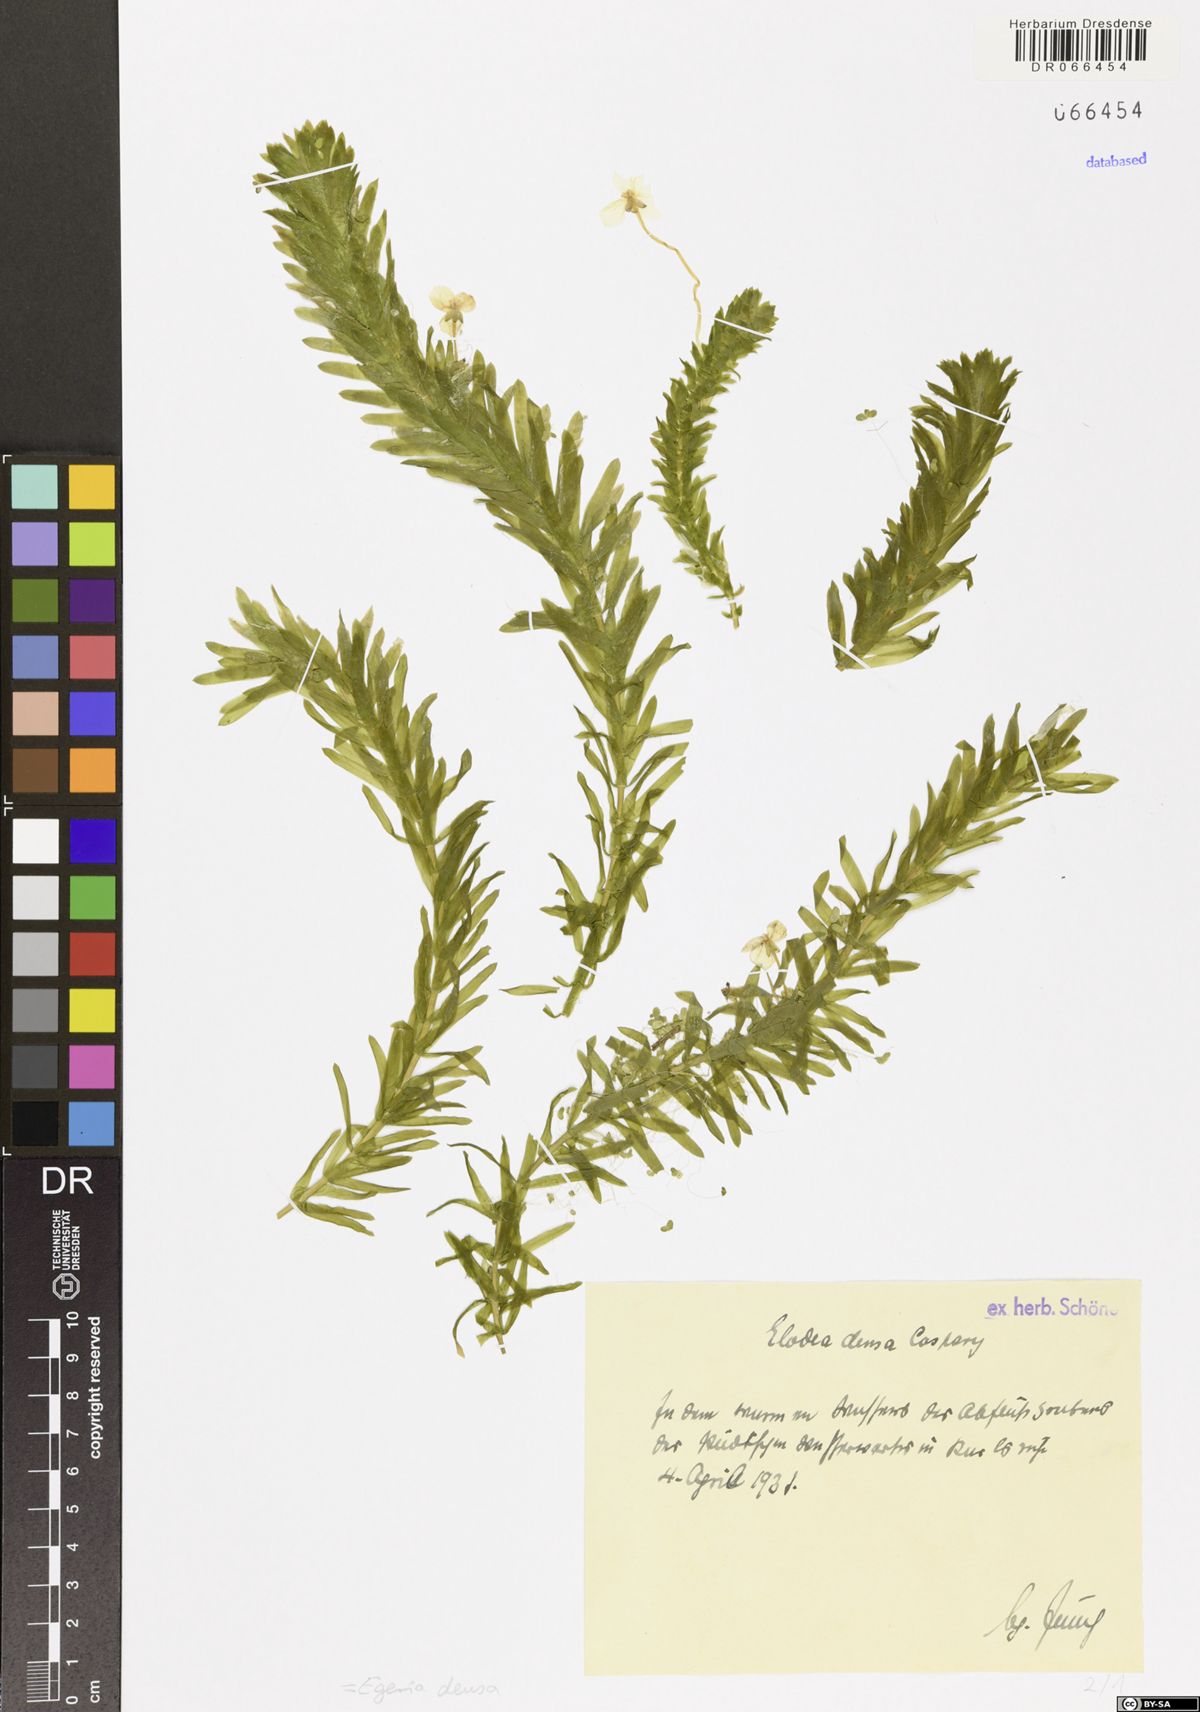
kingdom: Plantae
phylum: Tracheophyta
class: Liliopsida
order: Alismatales
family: Hydrocharitaceae
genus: Elodea
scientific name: Elodea densa
